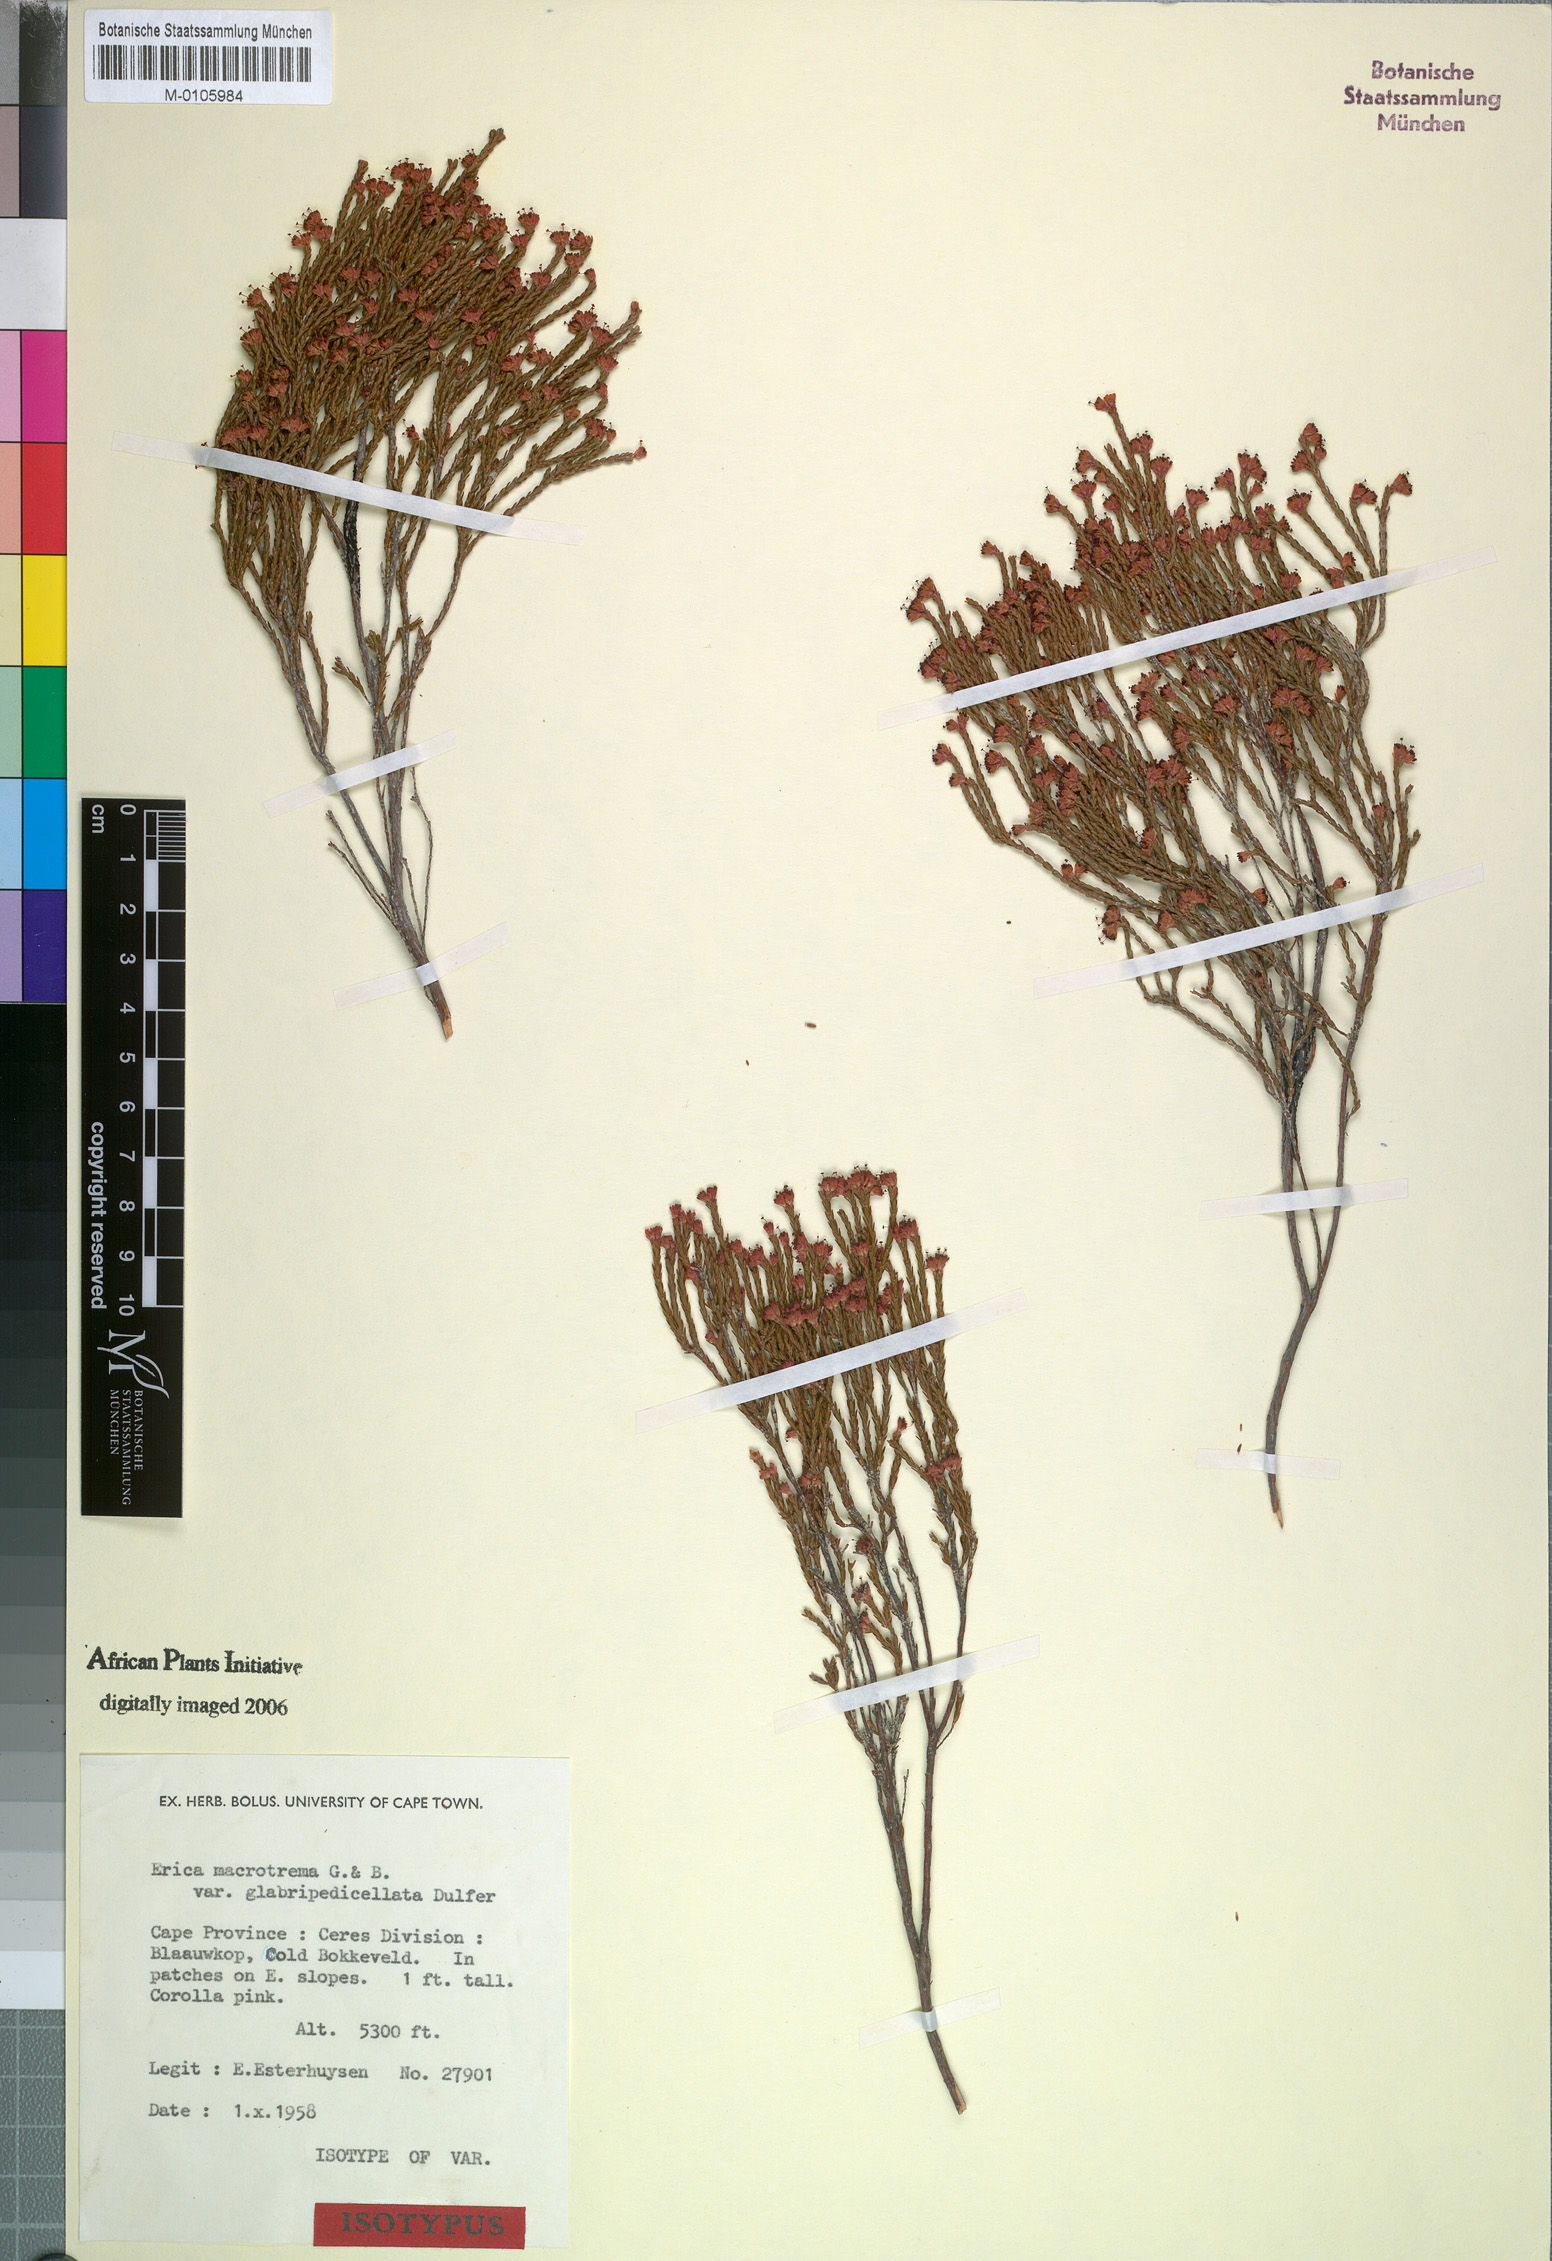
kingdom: Plantae
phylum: Tracheophyta
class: Magnoliopsida
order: Ericales
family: Ericaceae
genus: Erica
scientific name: Erica macrotrema
